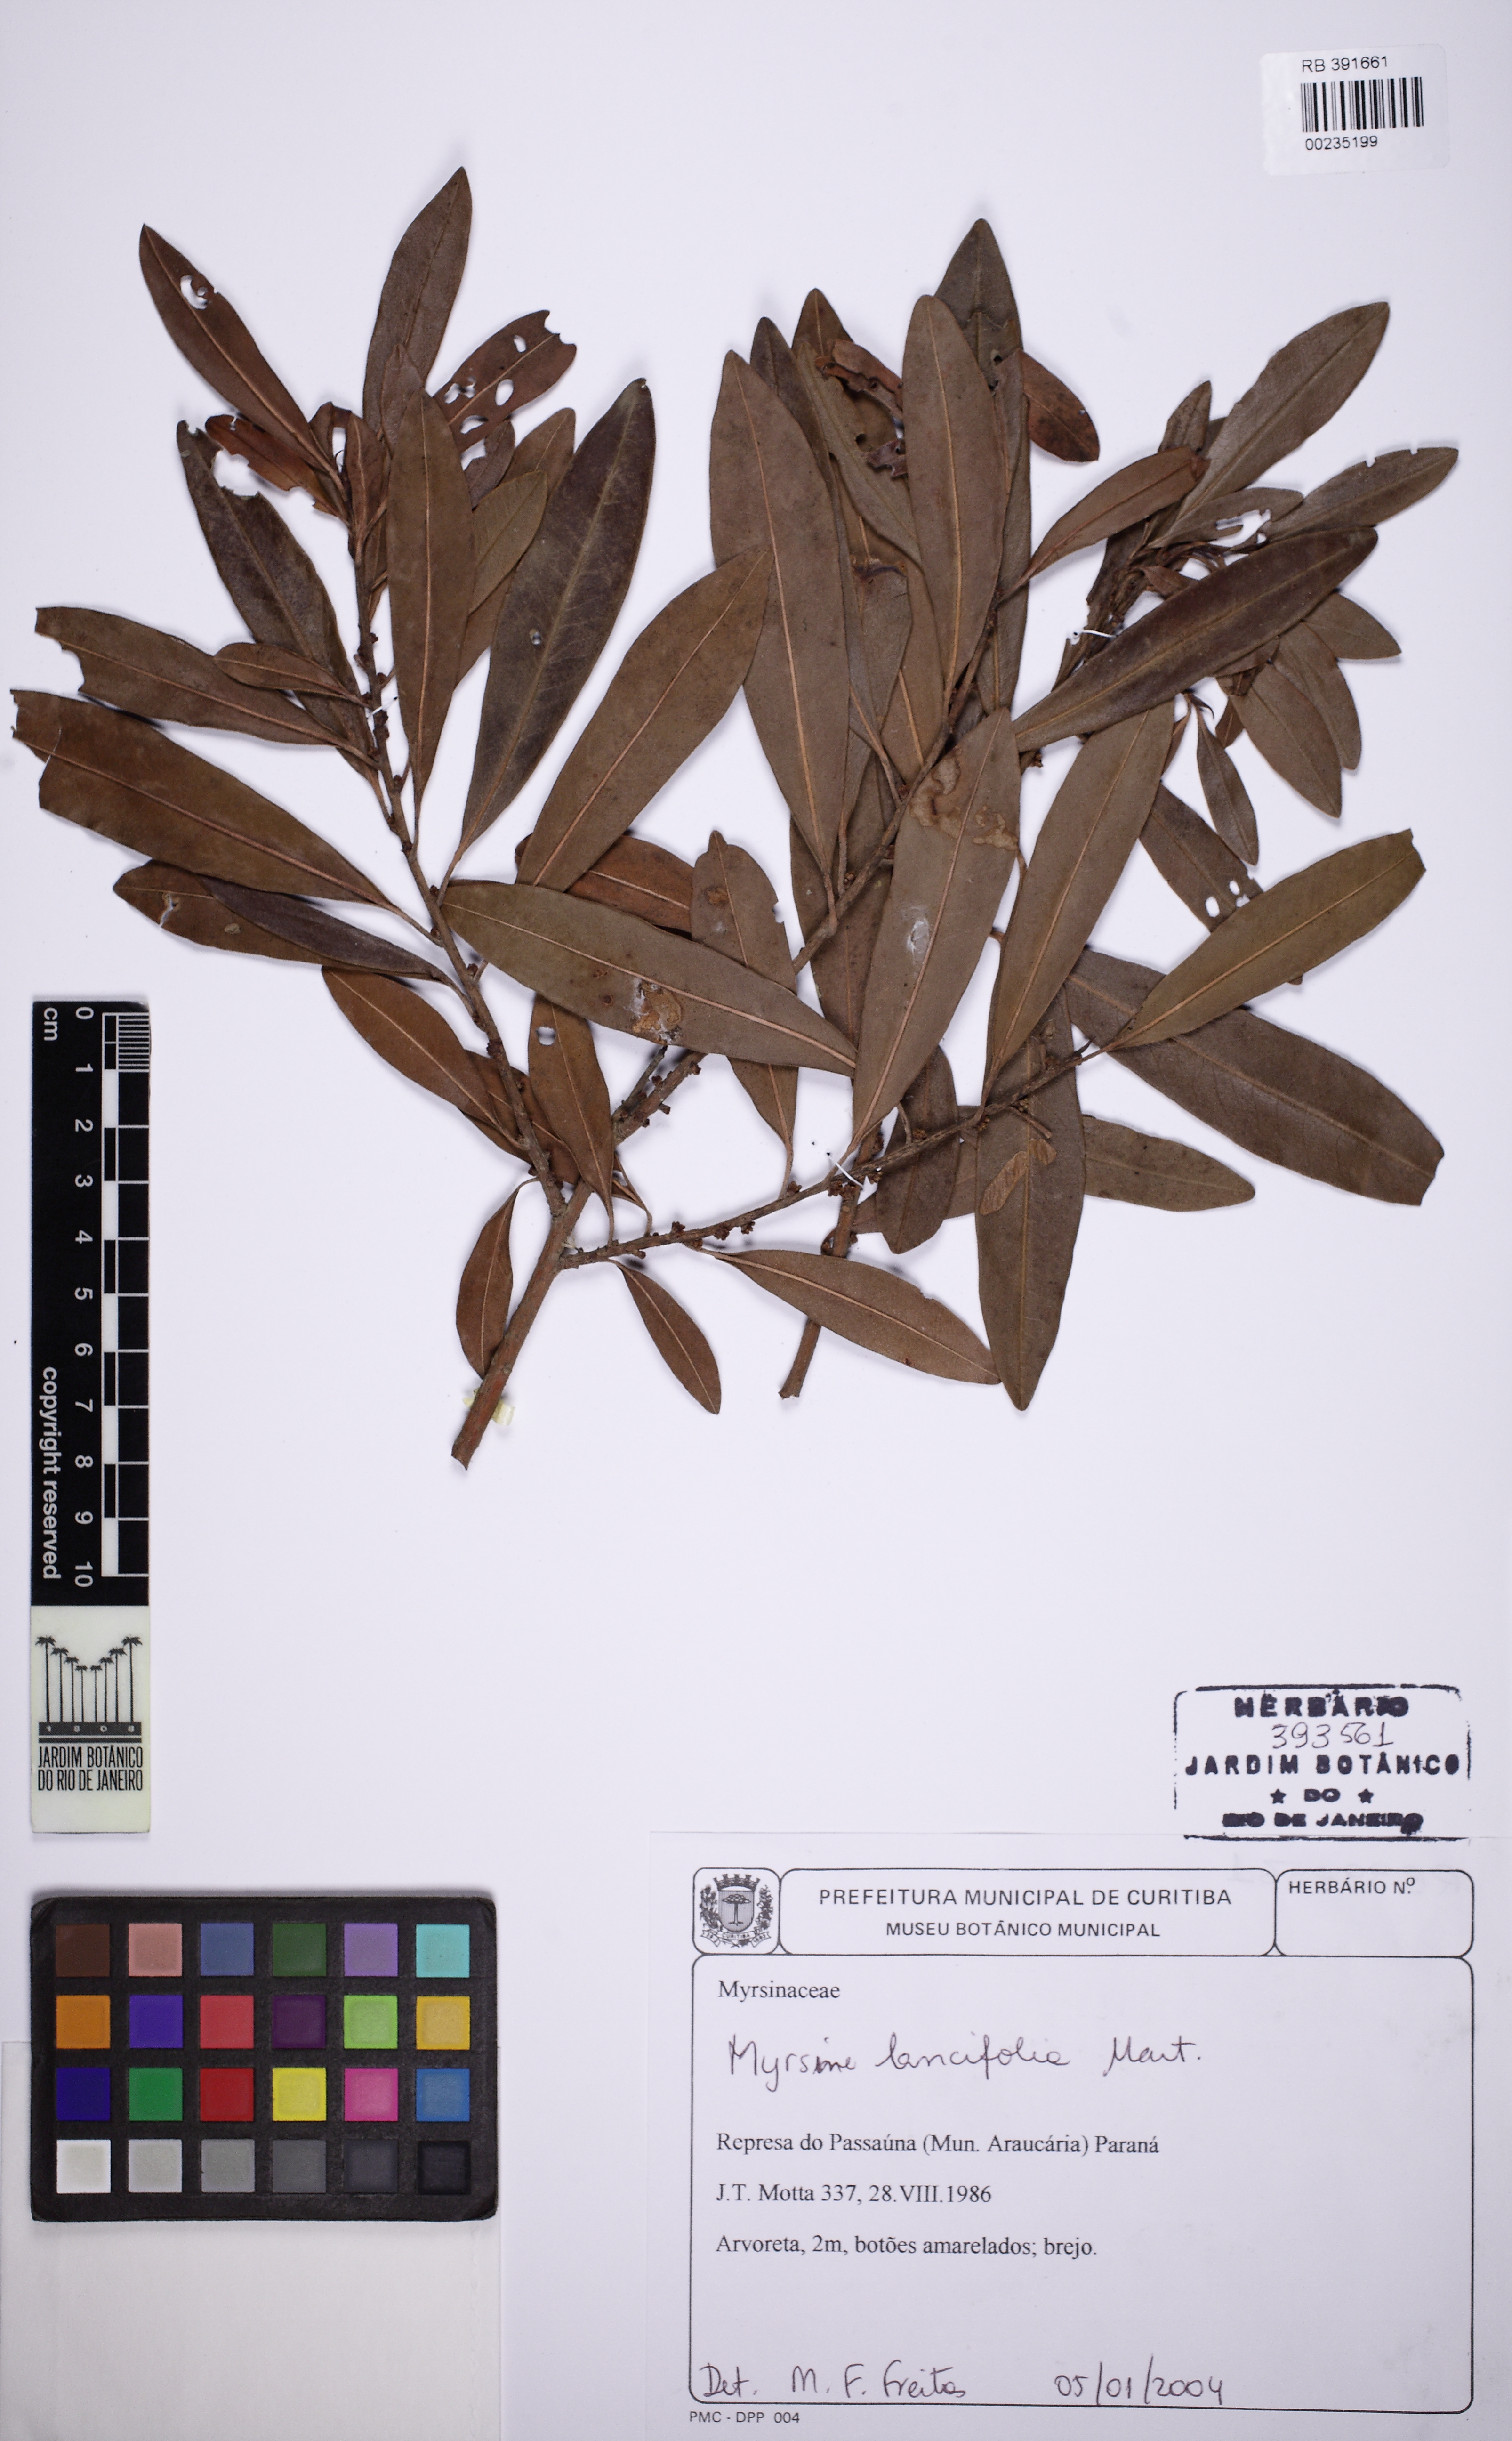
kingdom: Plantae
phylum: Tracheophyta
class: Magnoliopsida
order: Ericales
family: Primulaceae
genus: Myrsine
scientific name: Myrsine lancifolia
